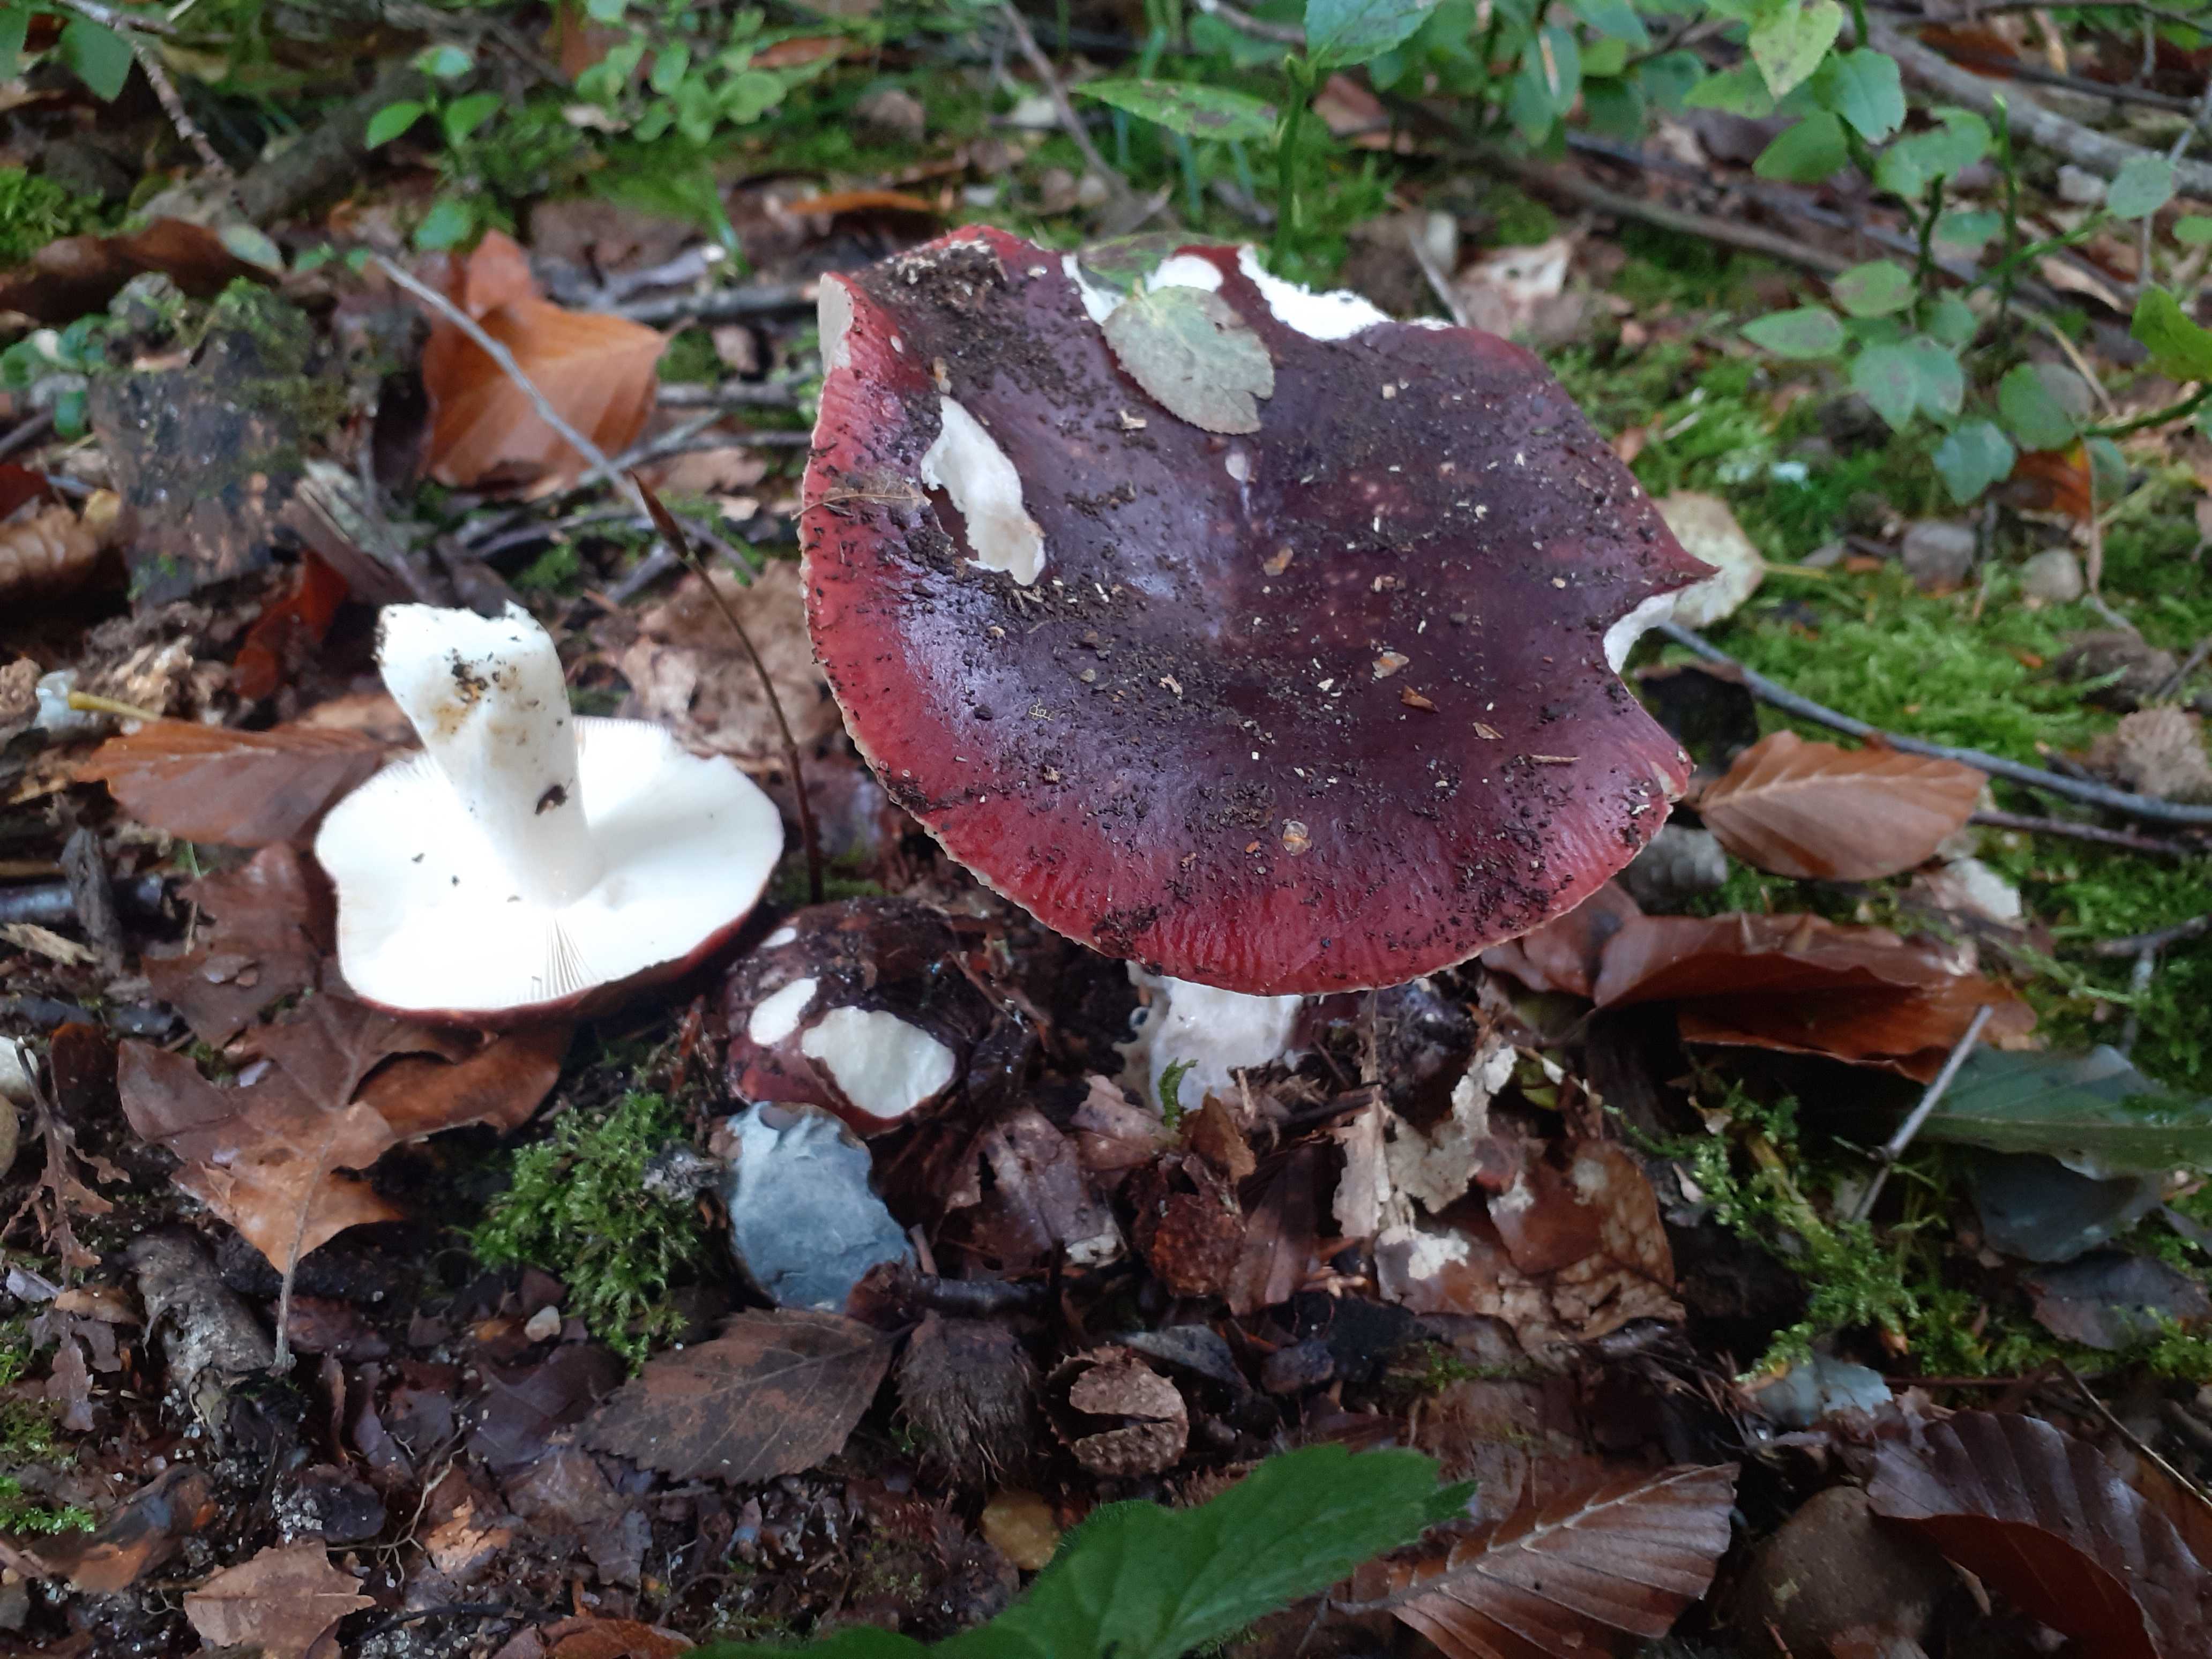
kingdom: Fungi
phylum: Basidiomycota
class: Agaricomycetes
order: Russulales
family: Russulaceae
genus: Russula
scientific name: Russula atropurpurea
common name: purpurbroget skørhat
